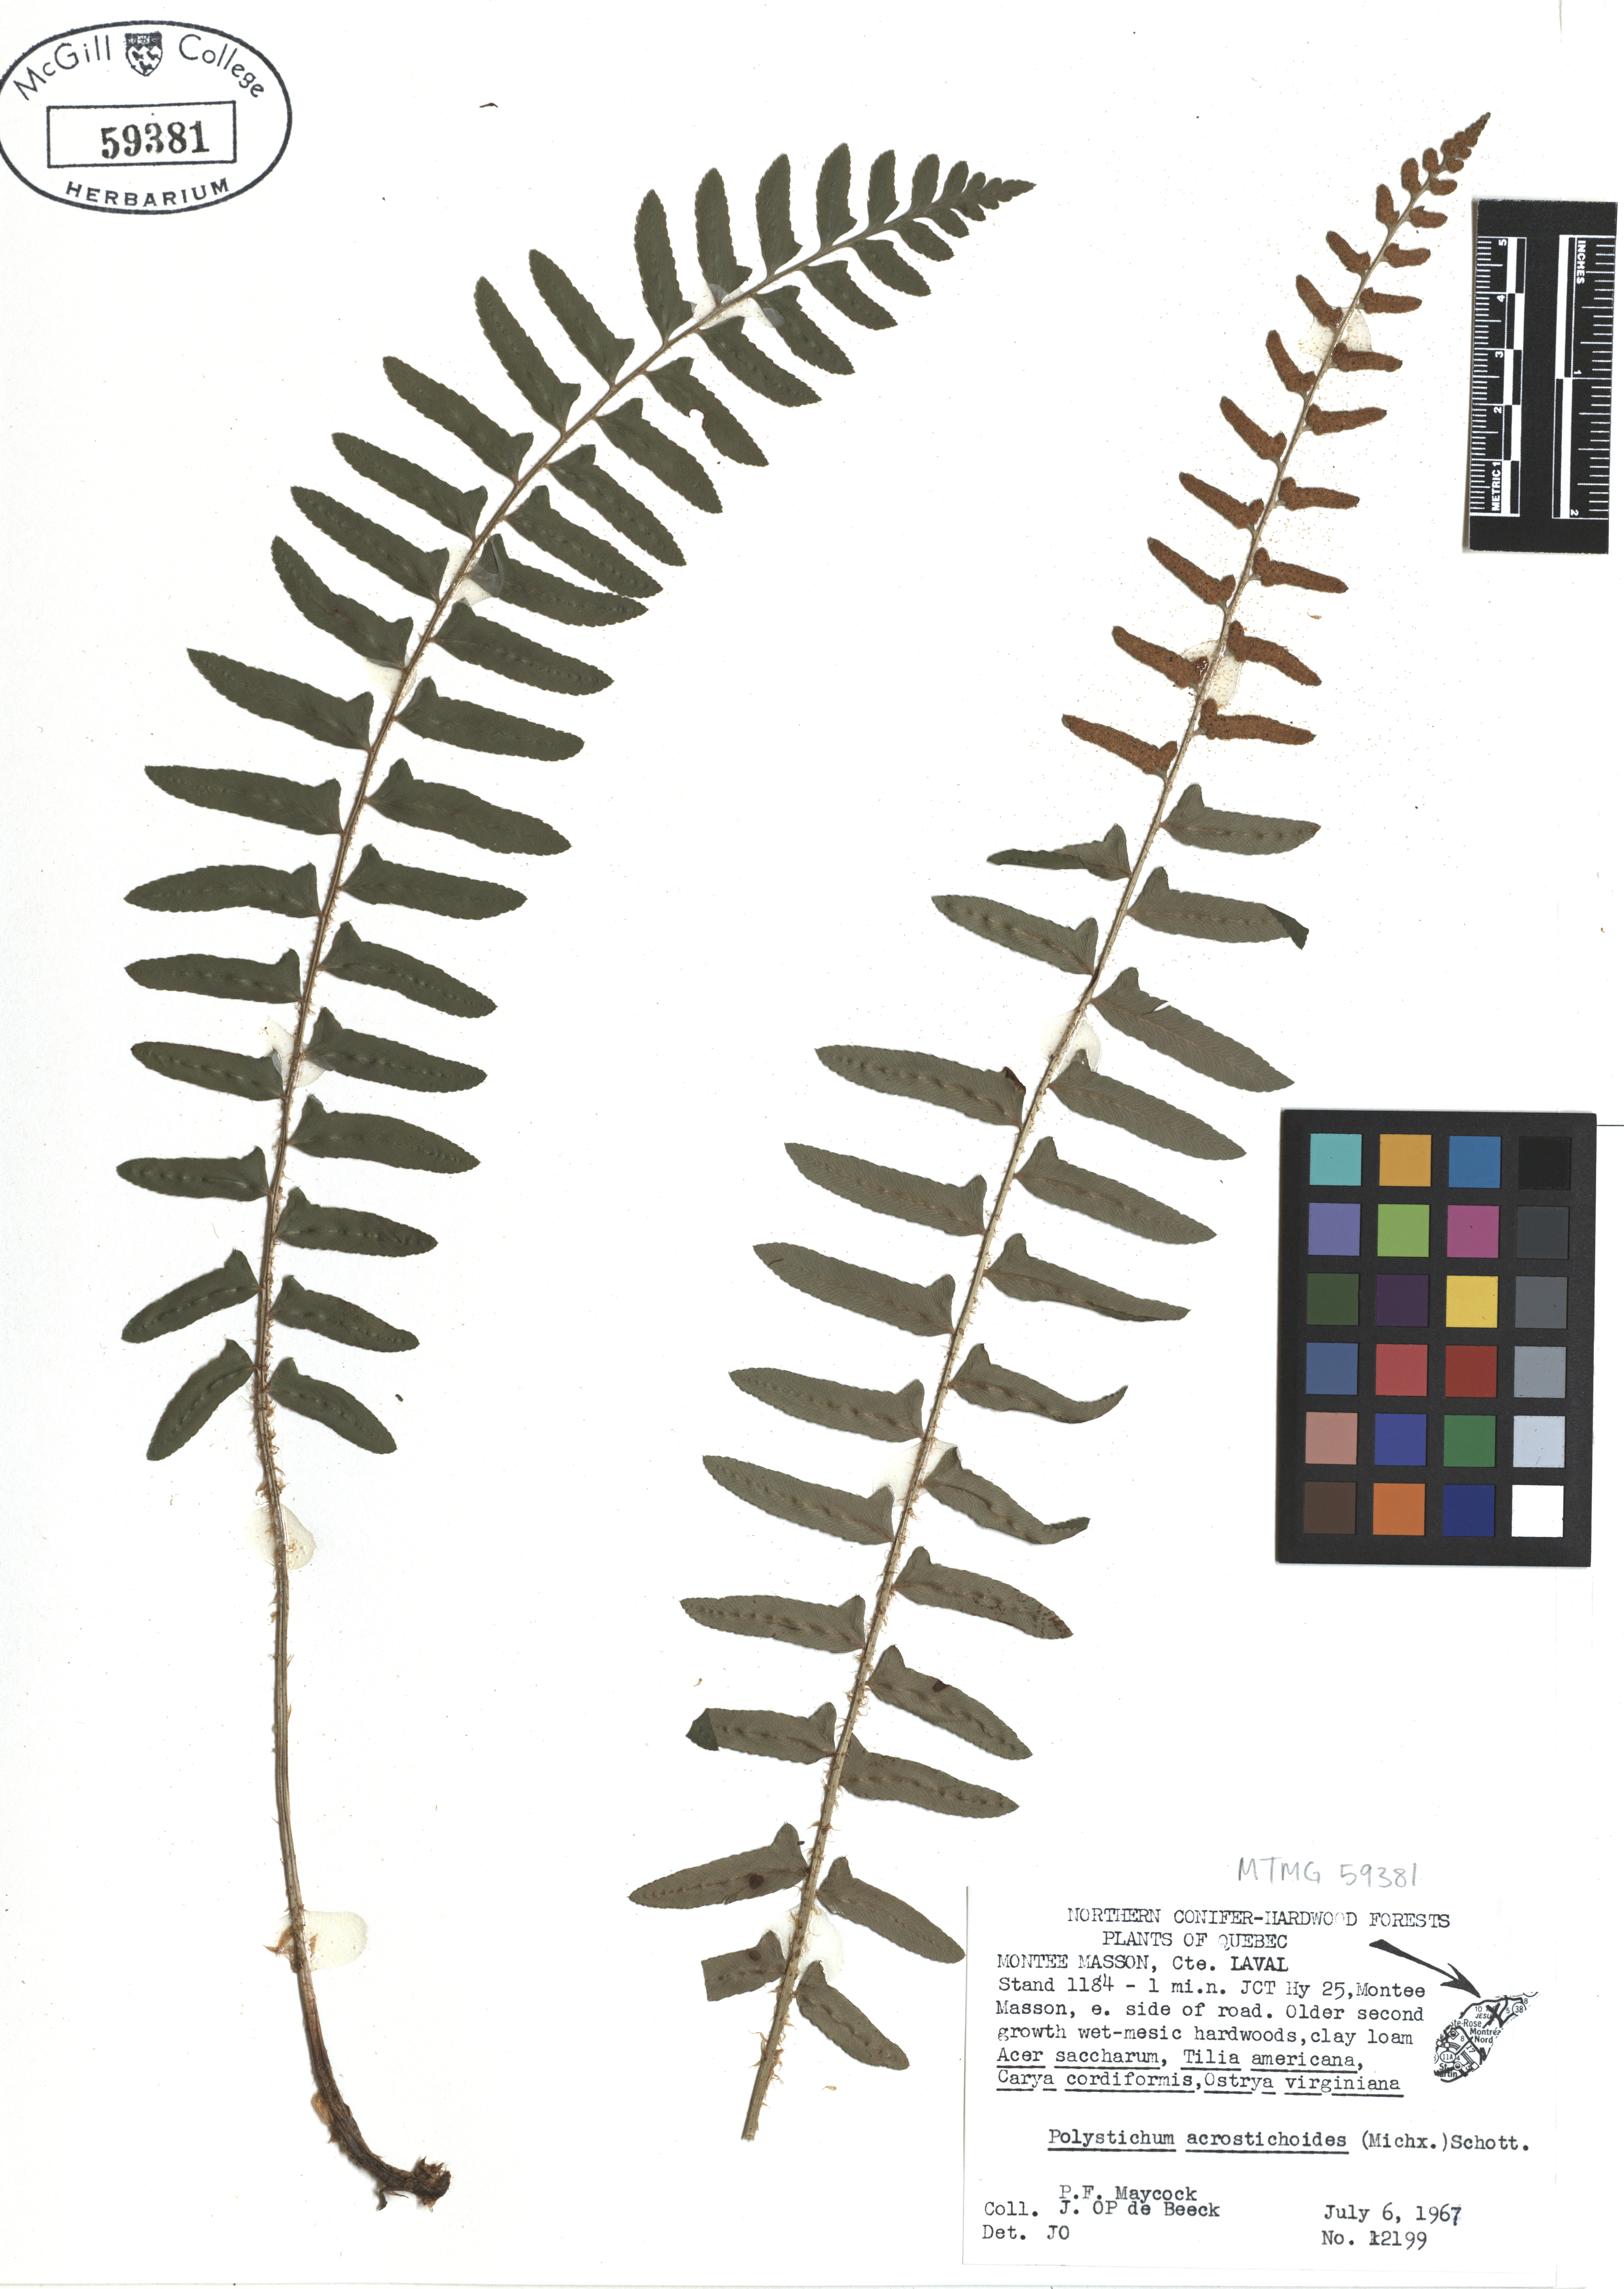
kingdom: Plantae
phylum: Tracheophyta
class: Polypodiopsida
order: Polypodiales
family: Dryopteridaceae
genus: Polystichum
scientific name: Polystichum acrostichoides
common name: Christmas fern
